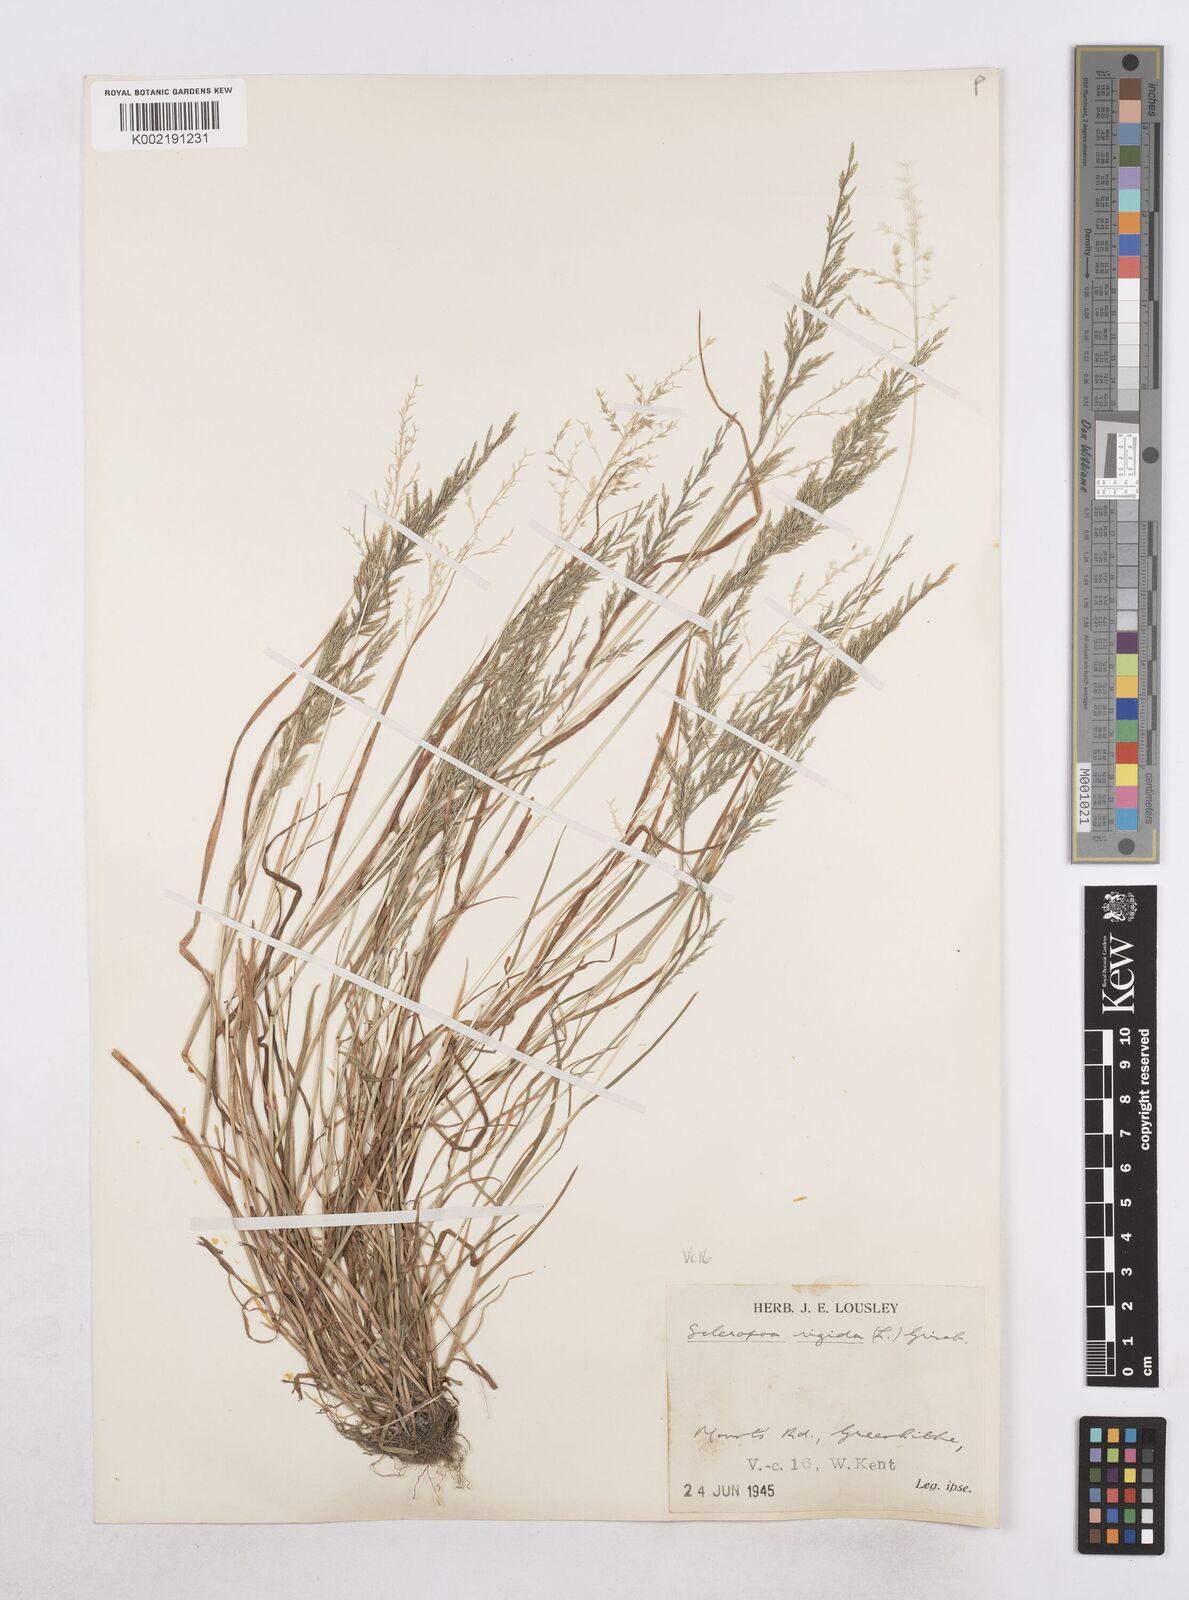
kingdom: Plantae
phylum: Tracheophyta
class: Liliopsida
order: Poales
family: Poaceae
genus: Catapodium
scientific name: Catapodium rigidum
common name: Fern-grass
